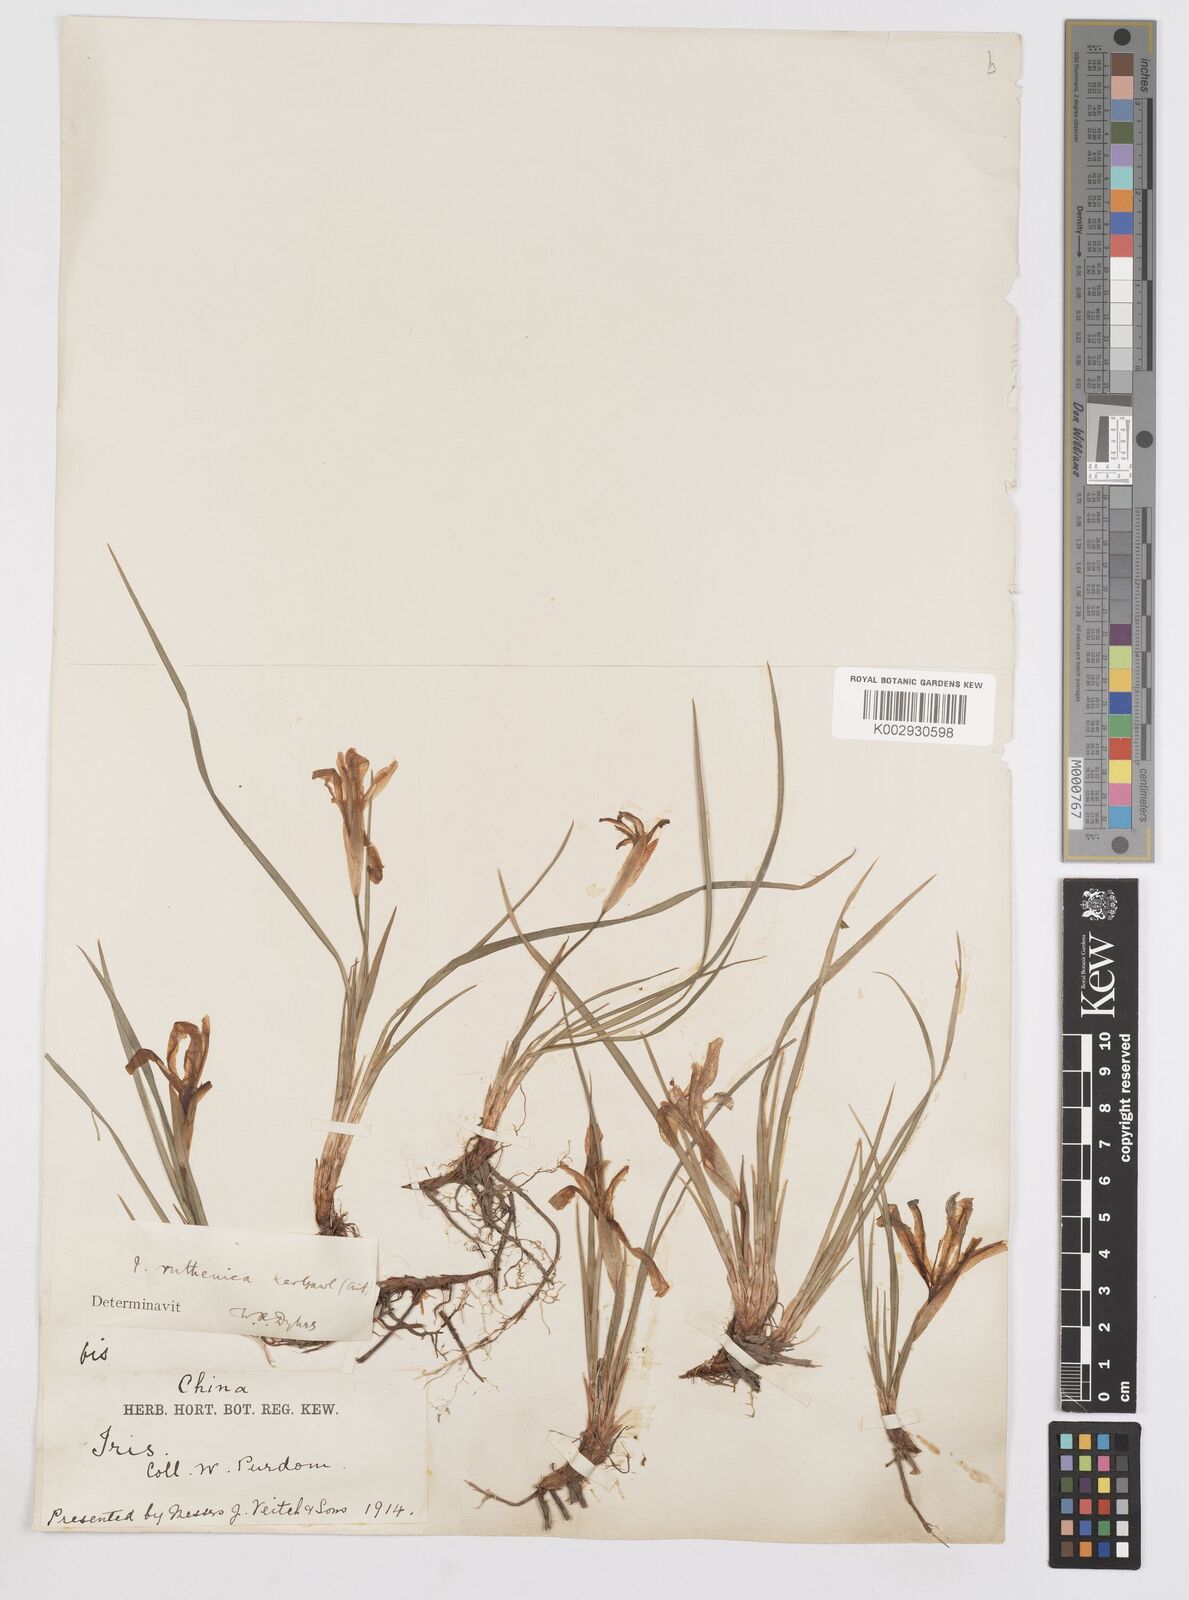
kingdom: Plantae
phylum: Tracheophyta
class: Liliopsida
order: Asparagales
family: Iridaceae
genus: Iris
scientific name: Iris
